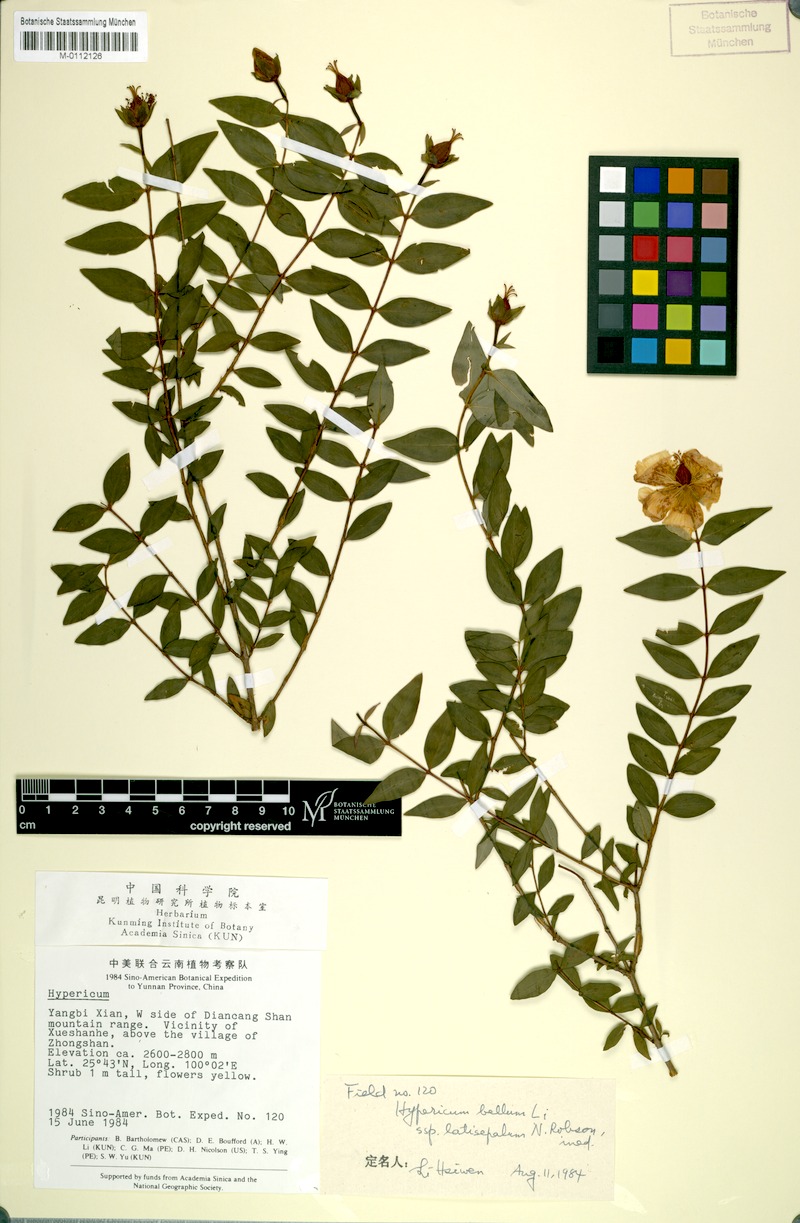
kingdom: Plantae
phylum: Tracheophyta
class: Magnoliopsida
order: Malpighiales
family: Hypericaceae
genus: Hypericum
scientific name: Hypericum latisepalum
